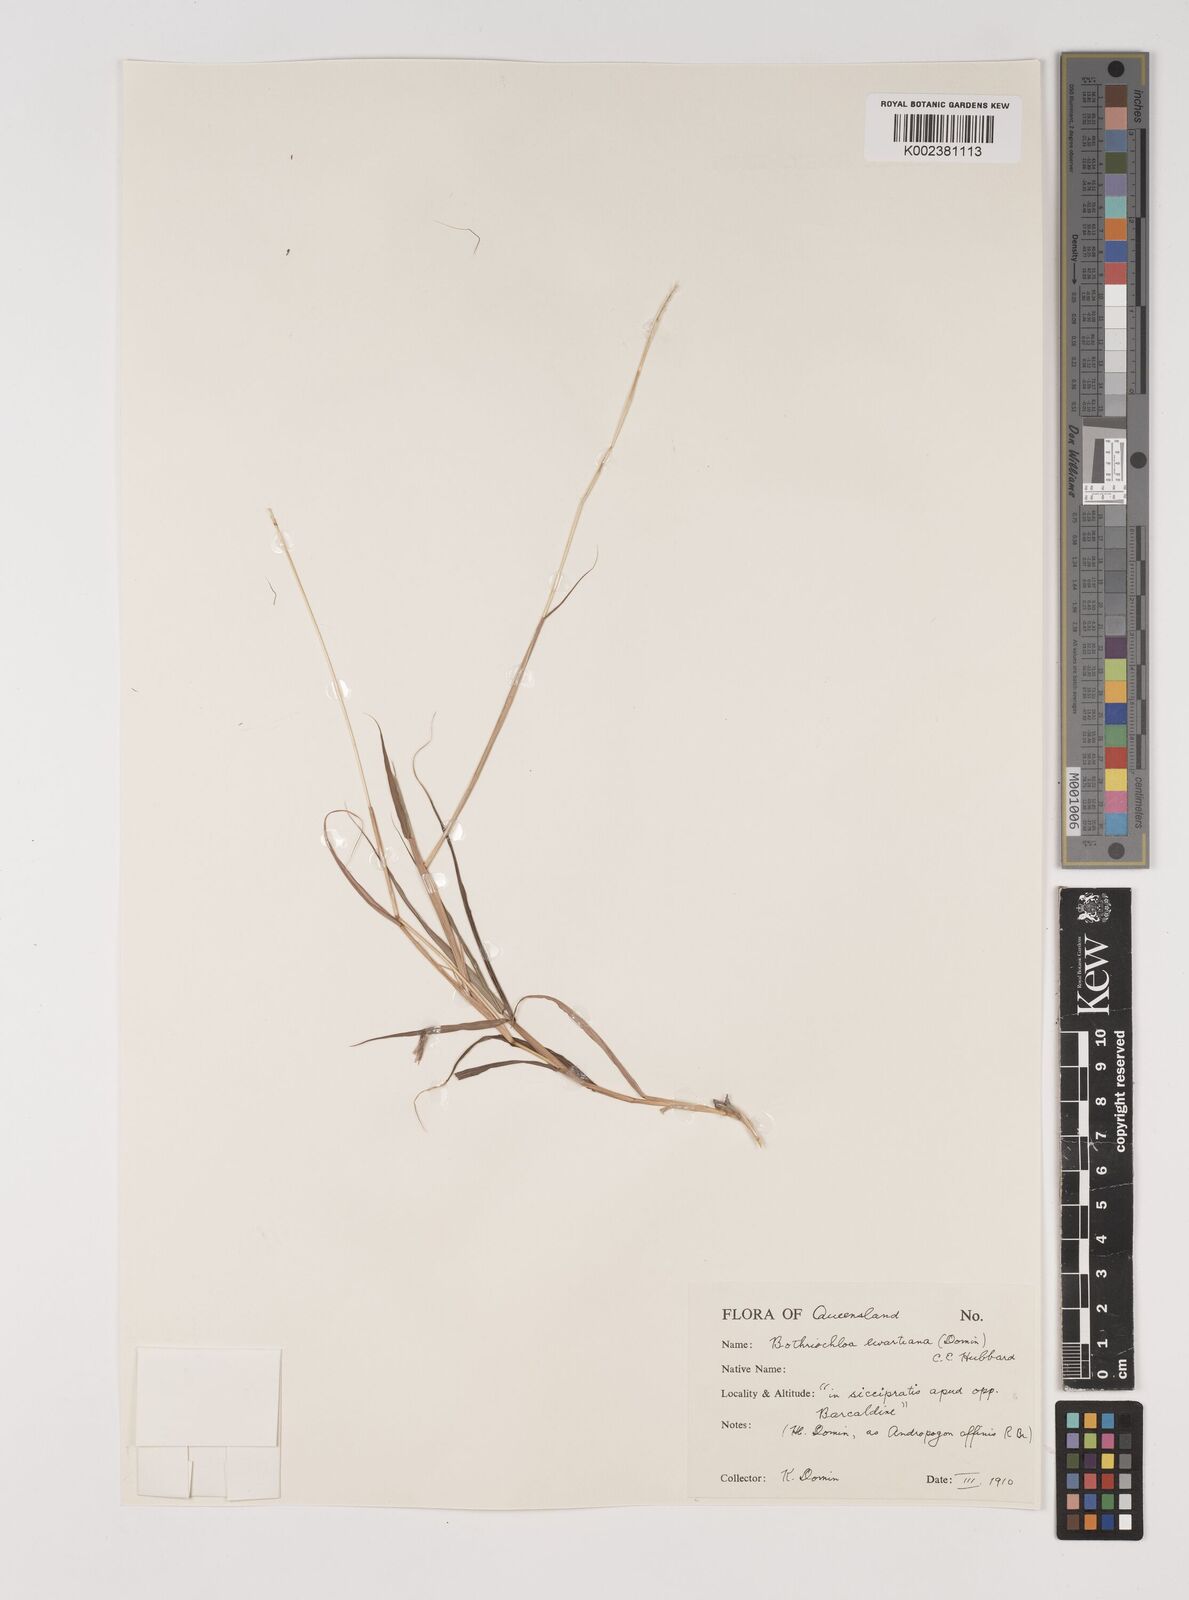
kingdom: Plantae
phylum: Tracheophyta
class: Liliopsida
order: Poales
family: Poaceae
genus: Bothriochloa
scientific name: Bothriochloa ewartiana
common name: Desert-bluegrass
